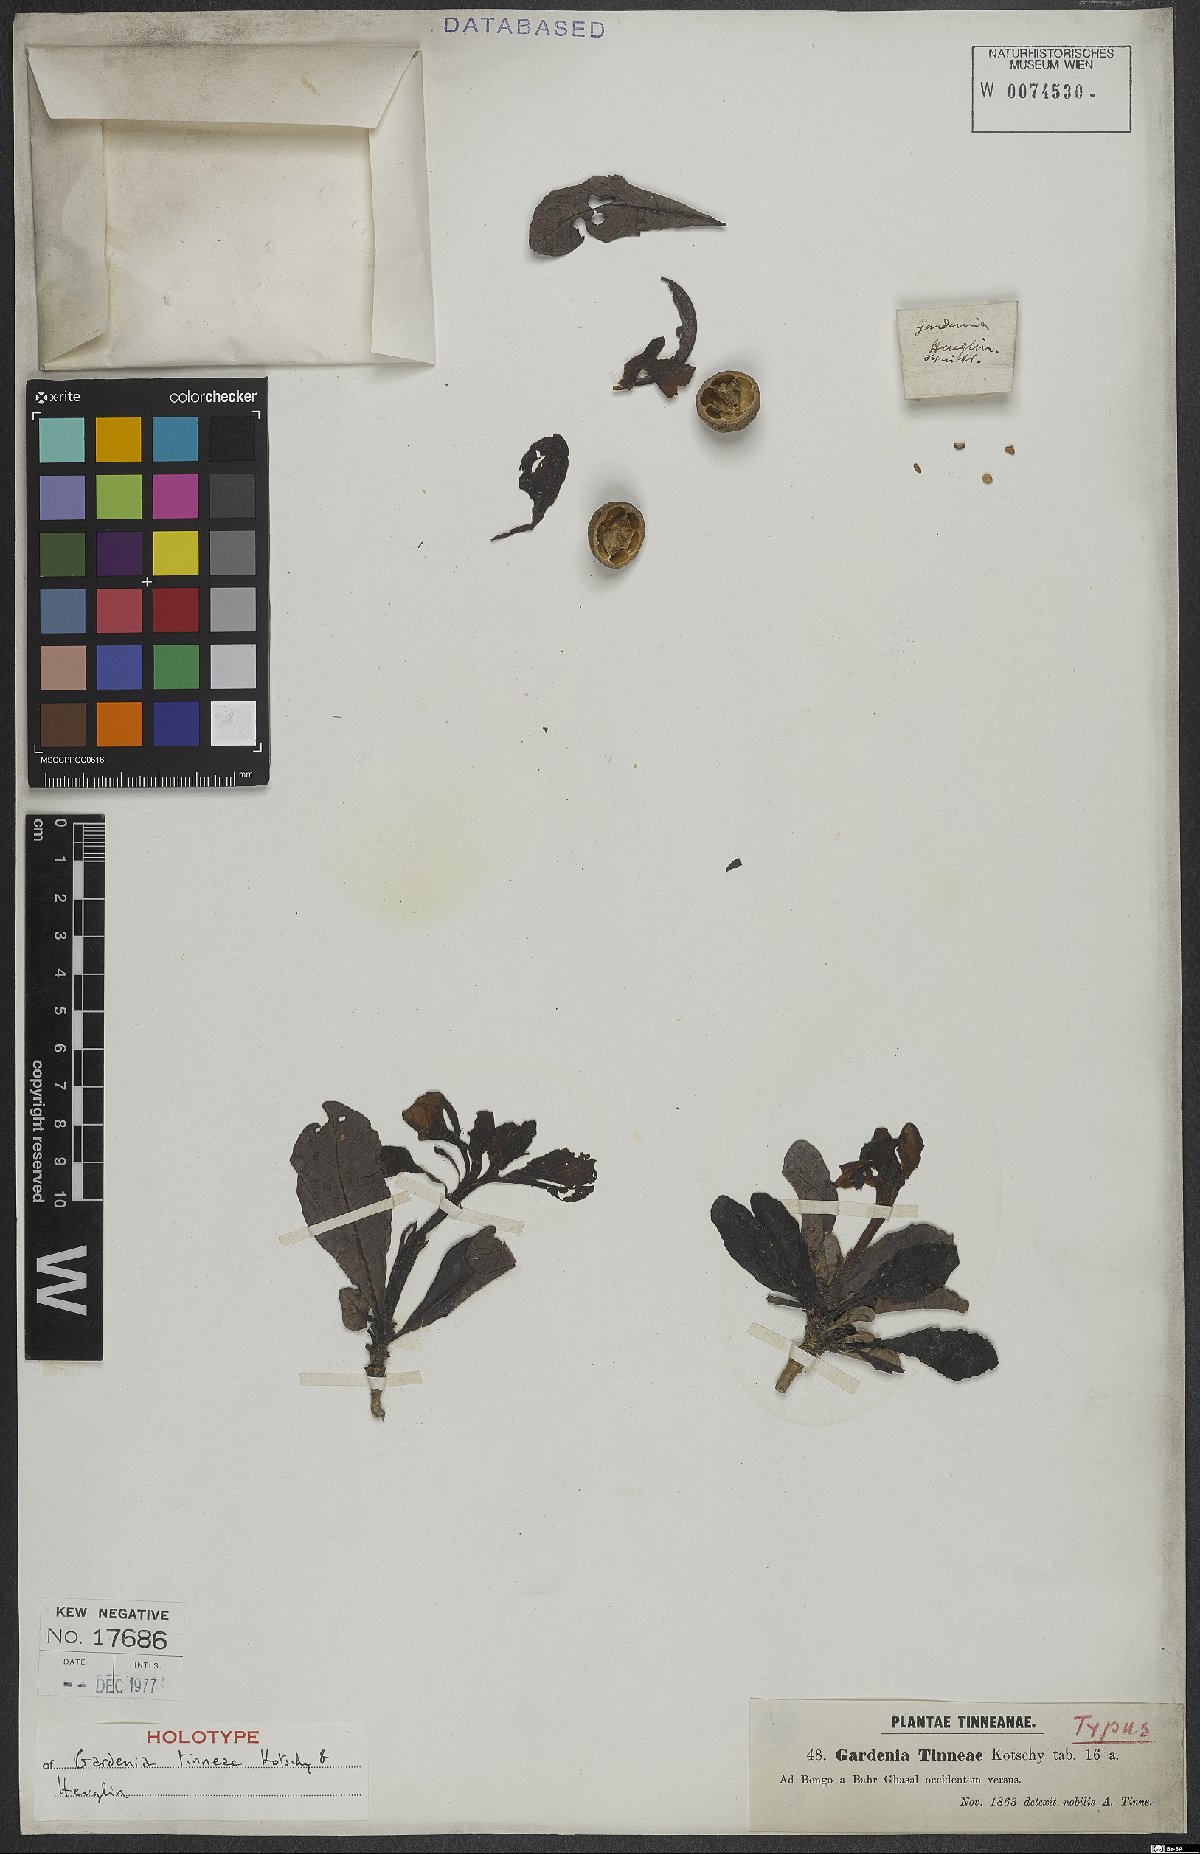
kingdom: Plantae
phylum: Tracheophyta
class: Magnoliopsida
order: Gentianales
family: Rubiaceae
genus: Gardenia
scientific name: Gardenia tinneae
